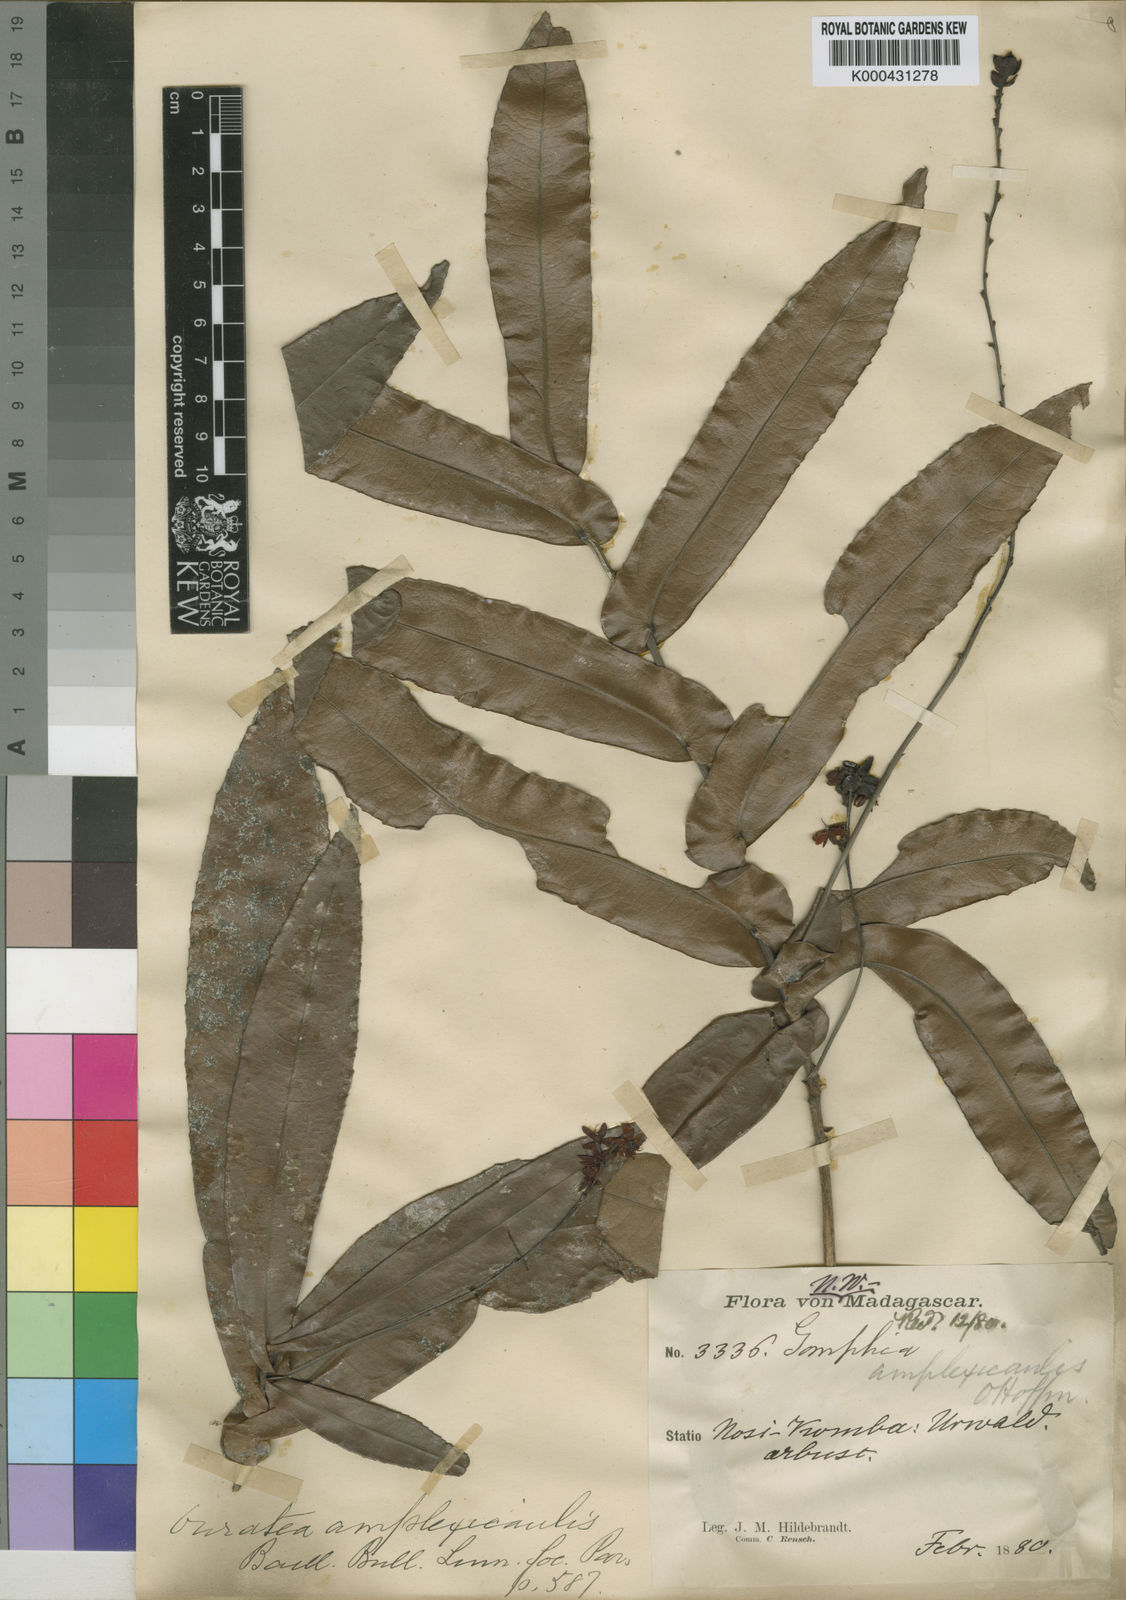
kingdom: Plantae
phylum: Tracheophyta
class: Magnoliopsida
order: Malpighiales
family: Ochnaceae
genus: Campylospermum
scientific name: Campylospermum dependens
